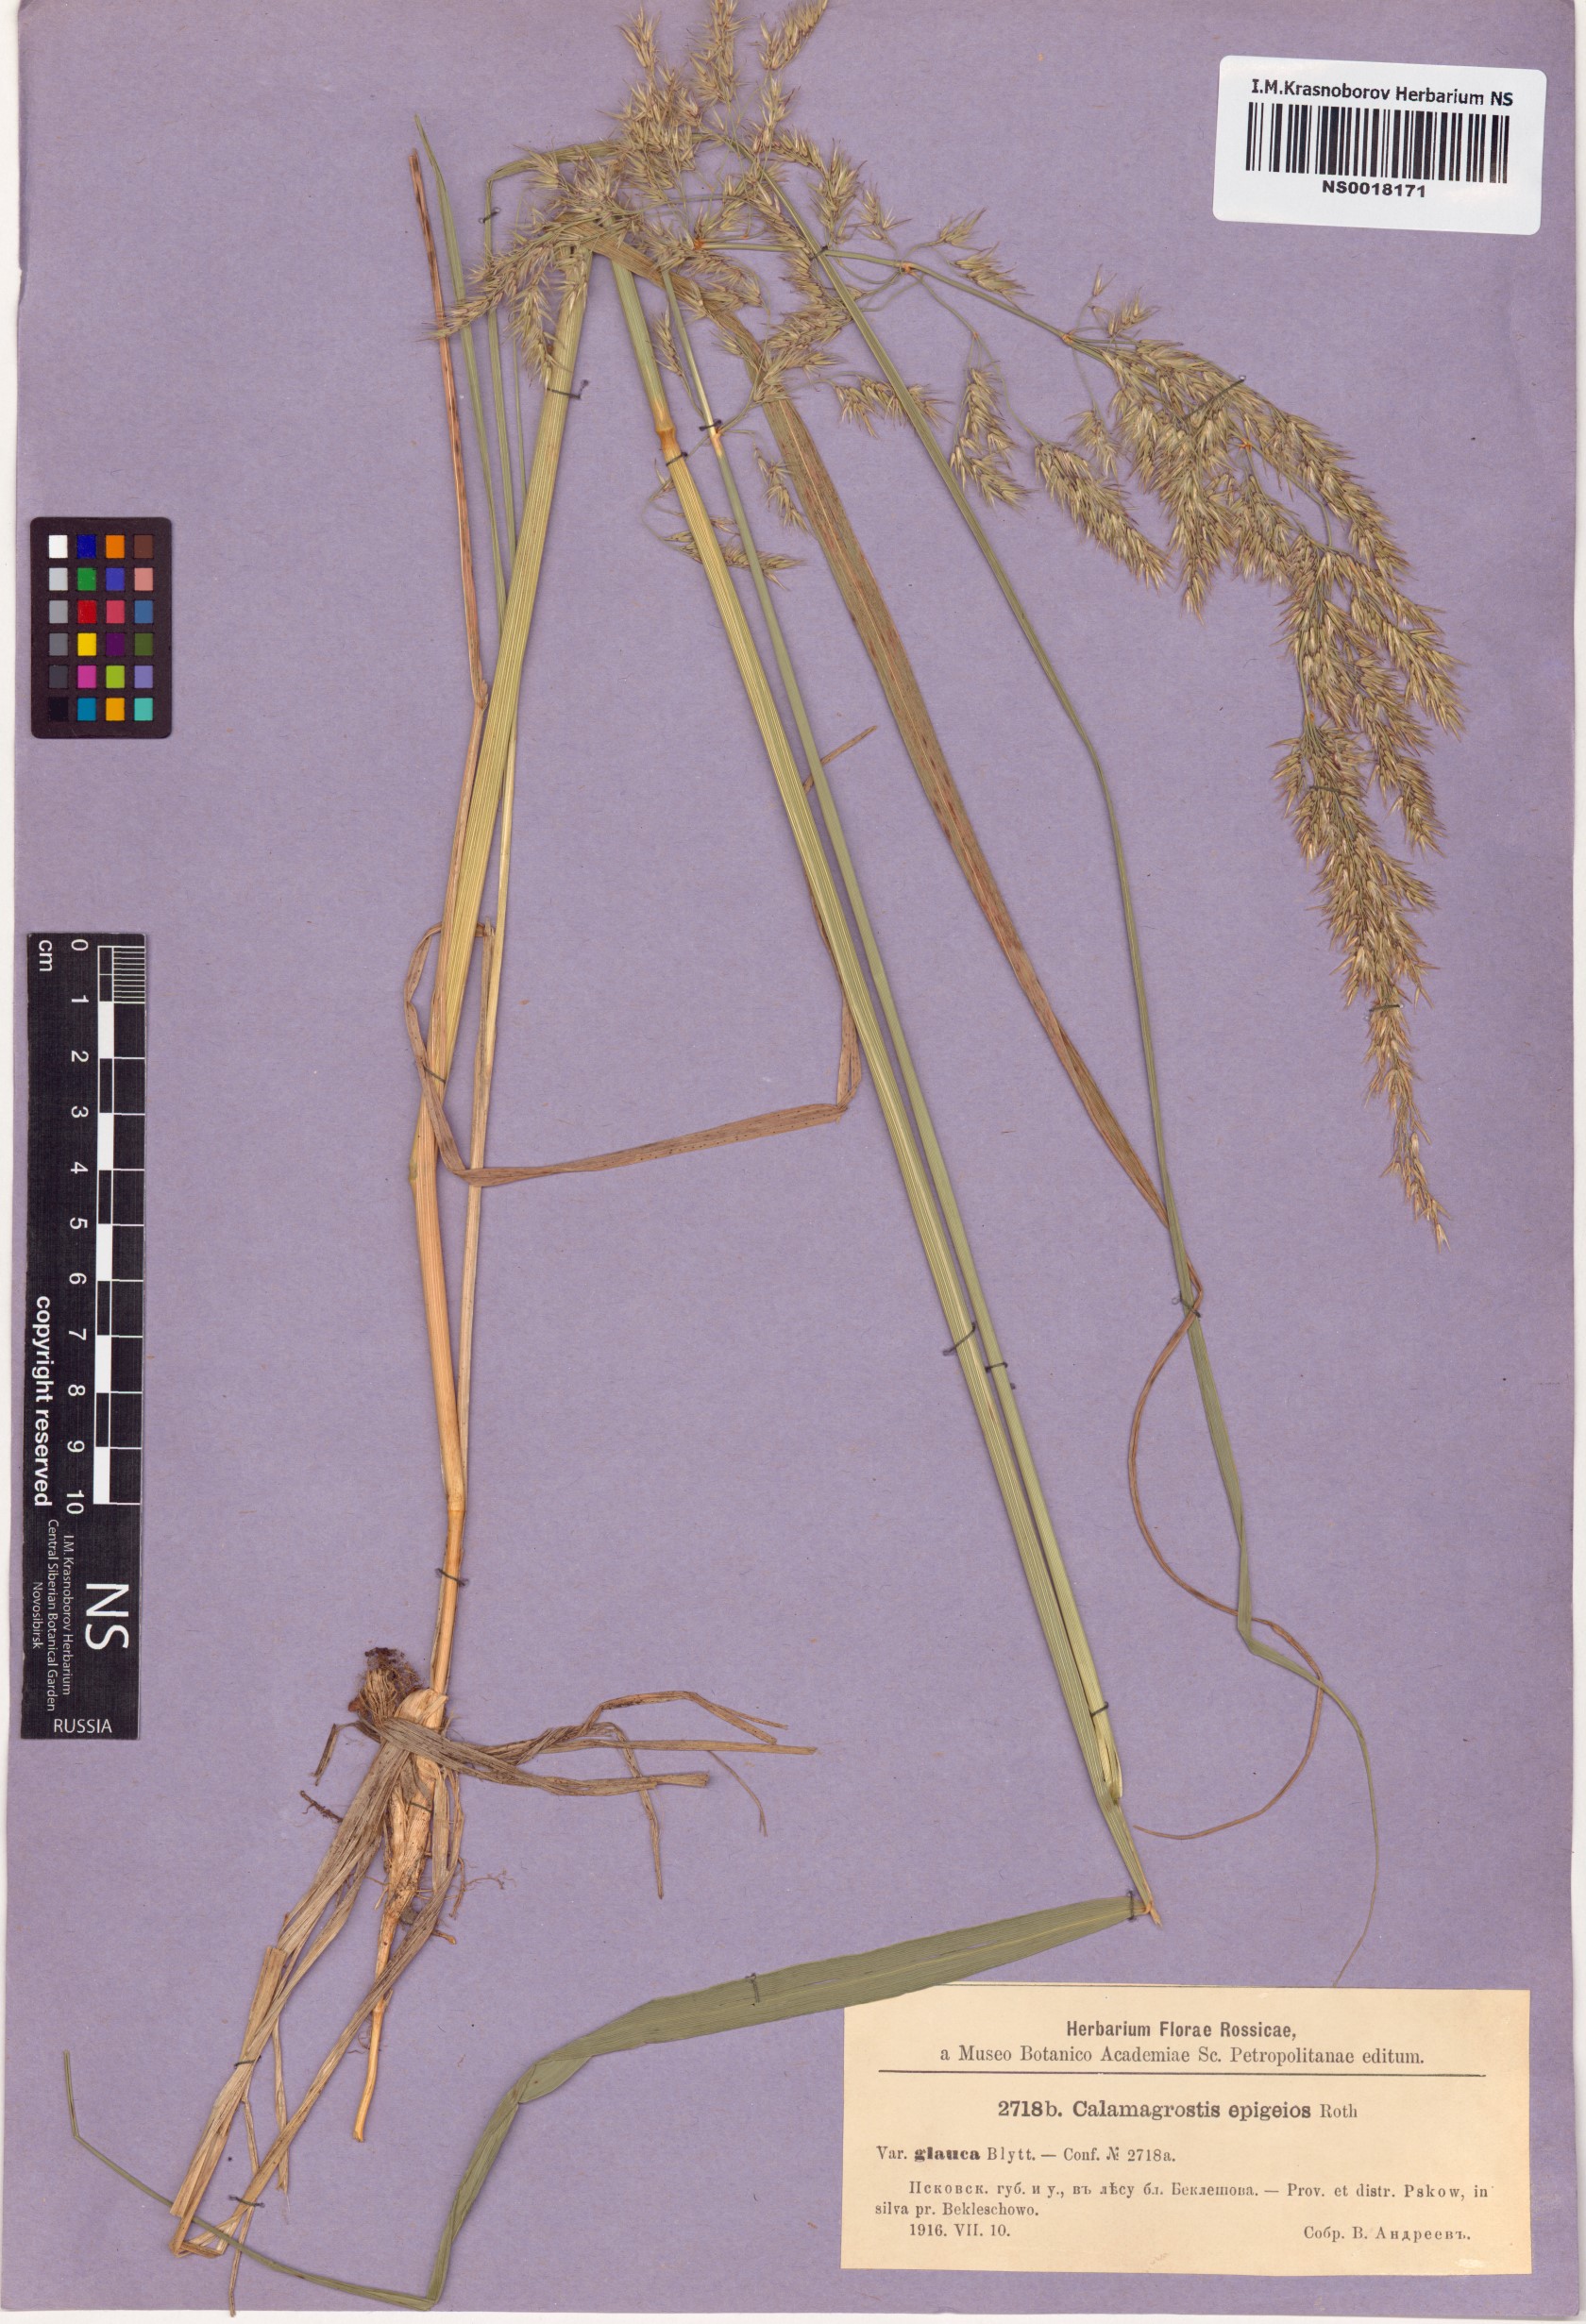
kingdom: Plantae
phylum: Tracheophyta
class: Liliopsida
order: Poales
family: Poaceae
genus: Calamagrostis
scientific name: Calamagrostis epigejos
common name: Wood small-reed
